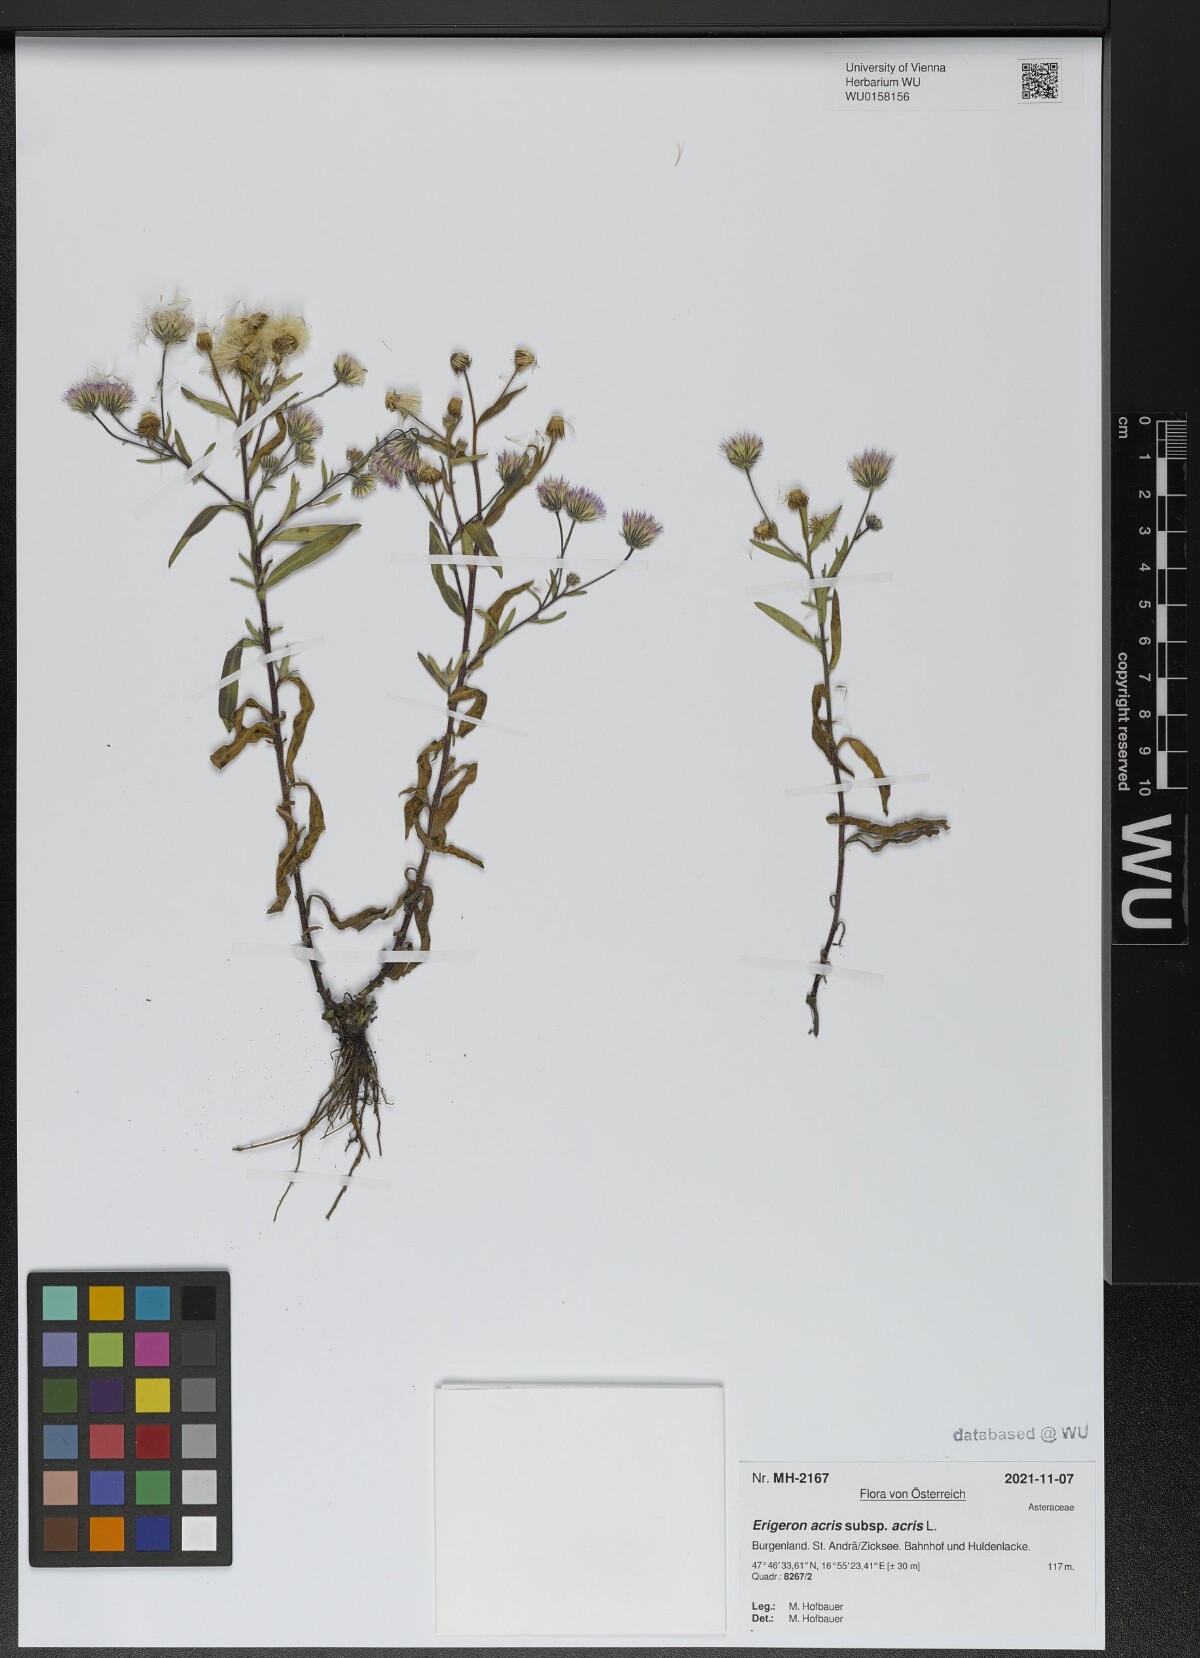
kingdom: Plantae
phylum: Tracheophyta
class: Magnoliopsida
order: Asterales
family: Asteraceae
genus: Erigeron
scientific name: Erigeron acris
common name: Blue fleabane
